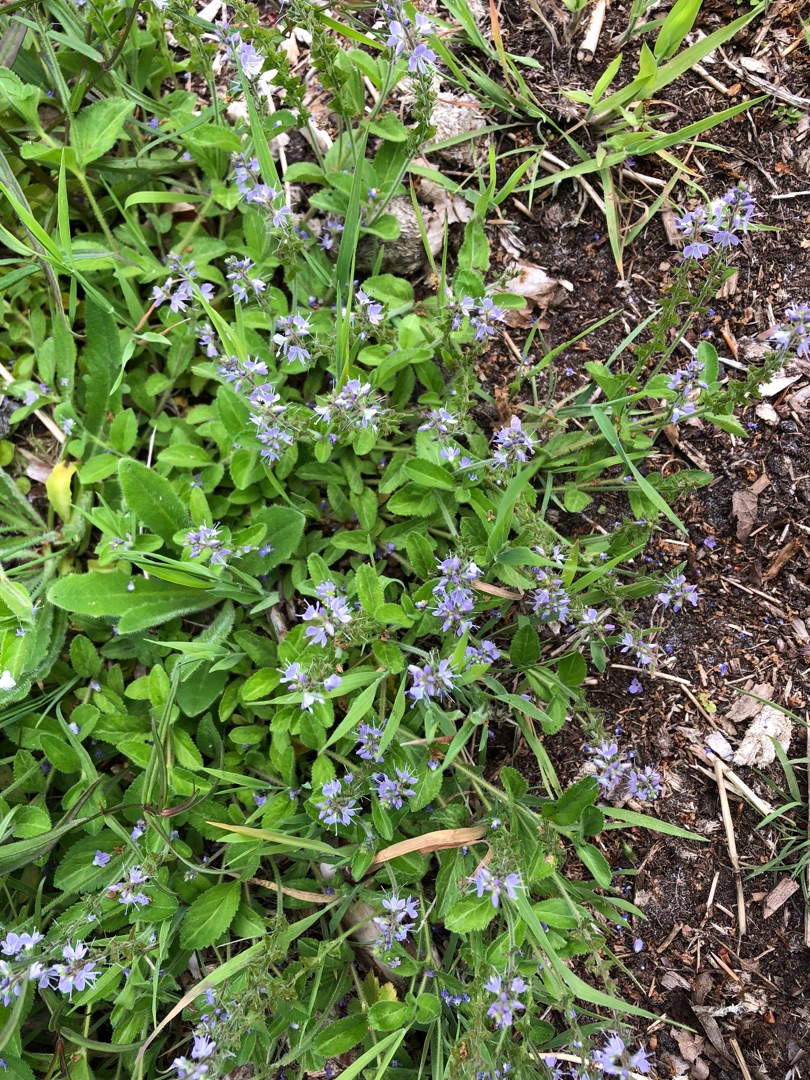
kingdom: Plantae
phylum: Tracheophyta
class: Magnoliopsida
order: Lamiales
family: Plantaginaceae
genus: Veronica
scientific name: Veronica officinalis
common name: Læge-ærenpris
